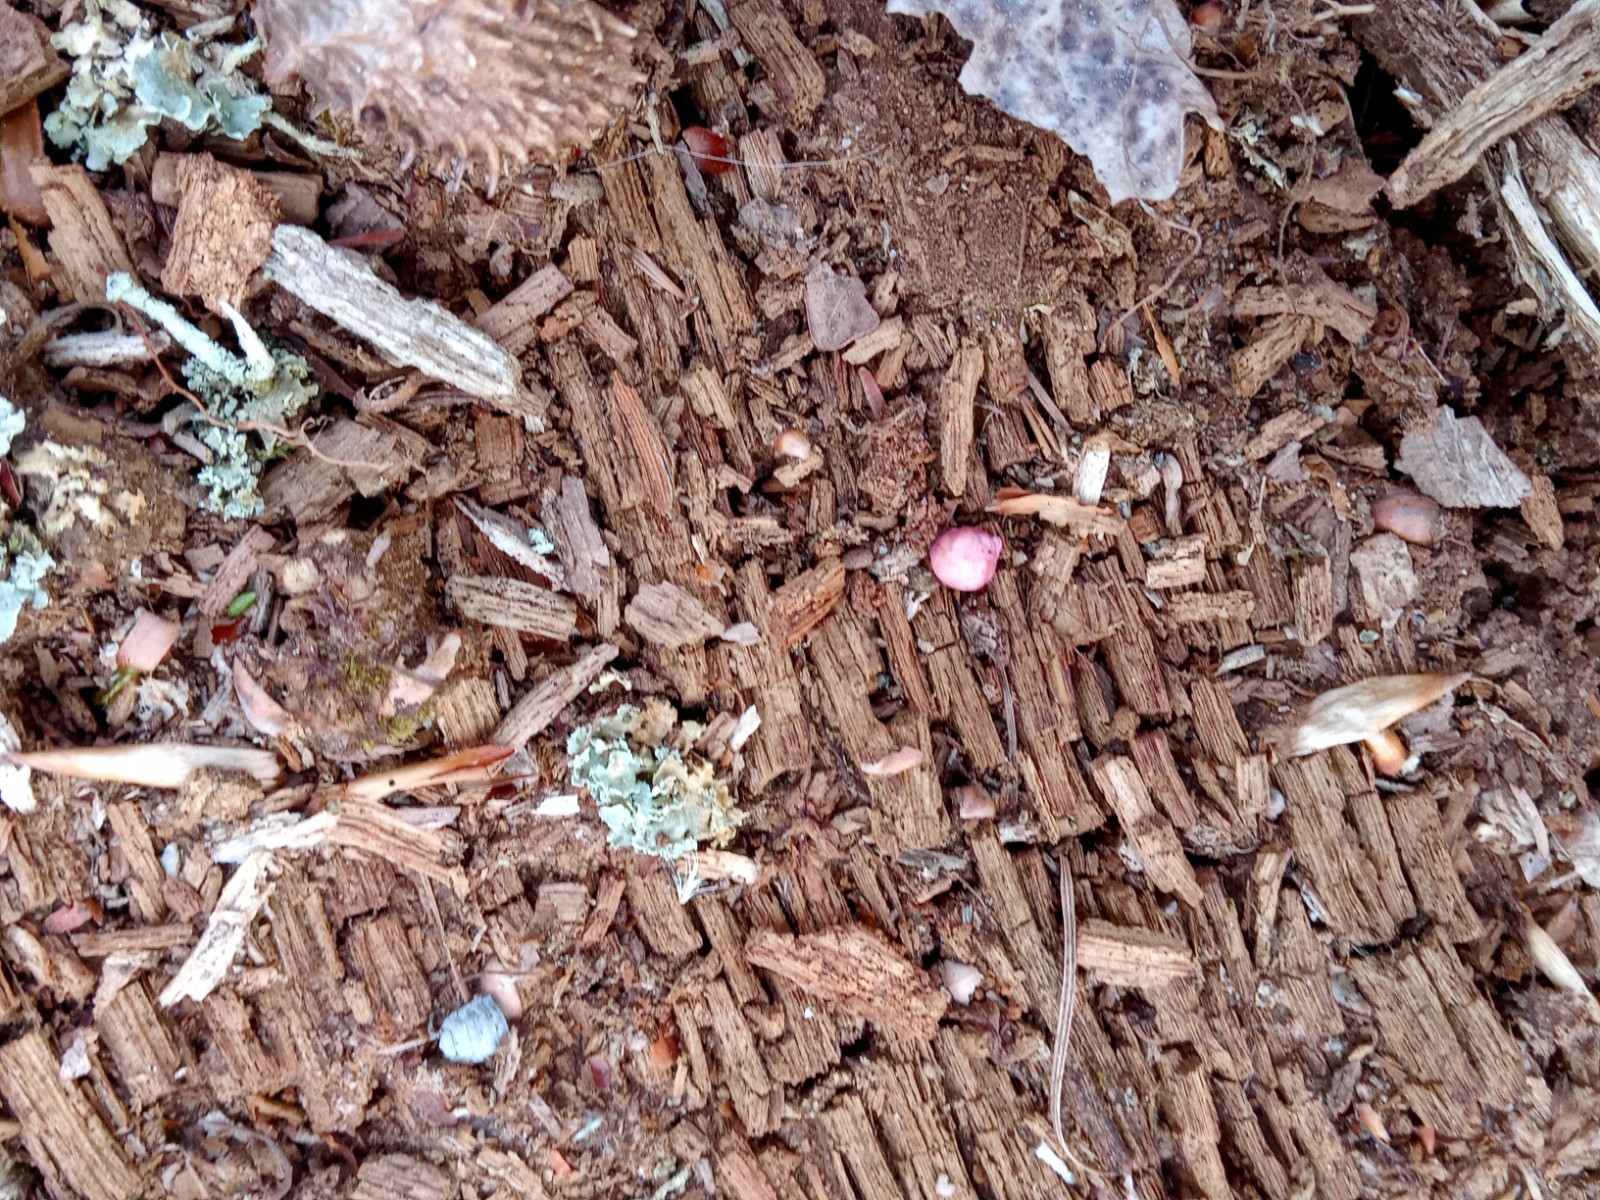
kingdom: Protozoa
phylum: Mycetozoa
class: Myxomycetes
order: Cribrariales
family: Tubiferaceae
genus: Lycogala
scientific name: Lycogala epidendrum
